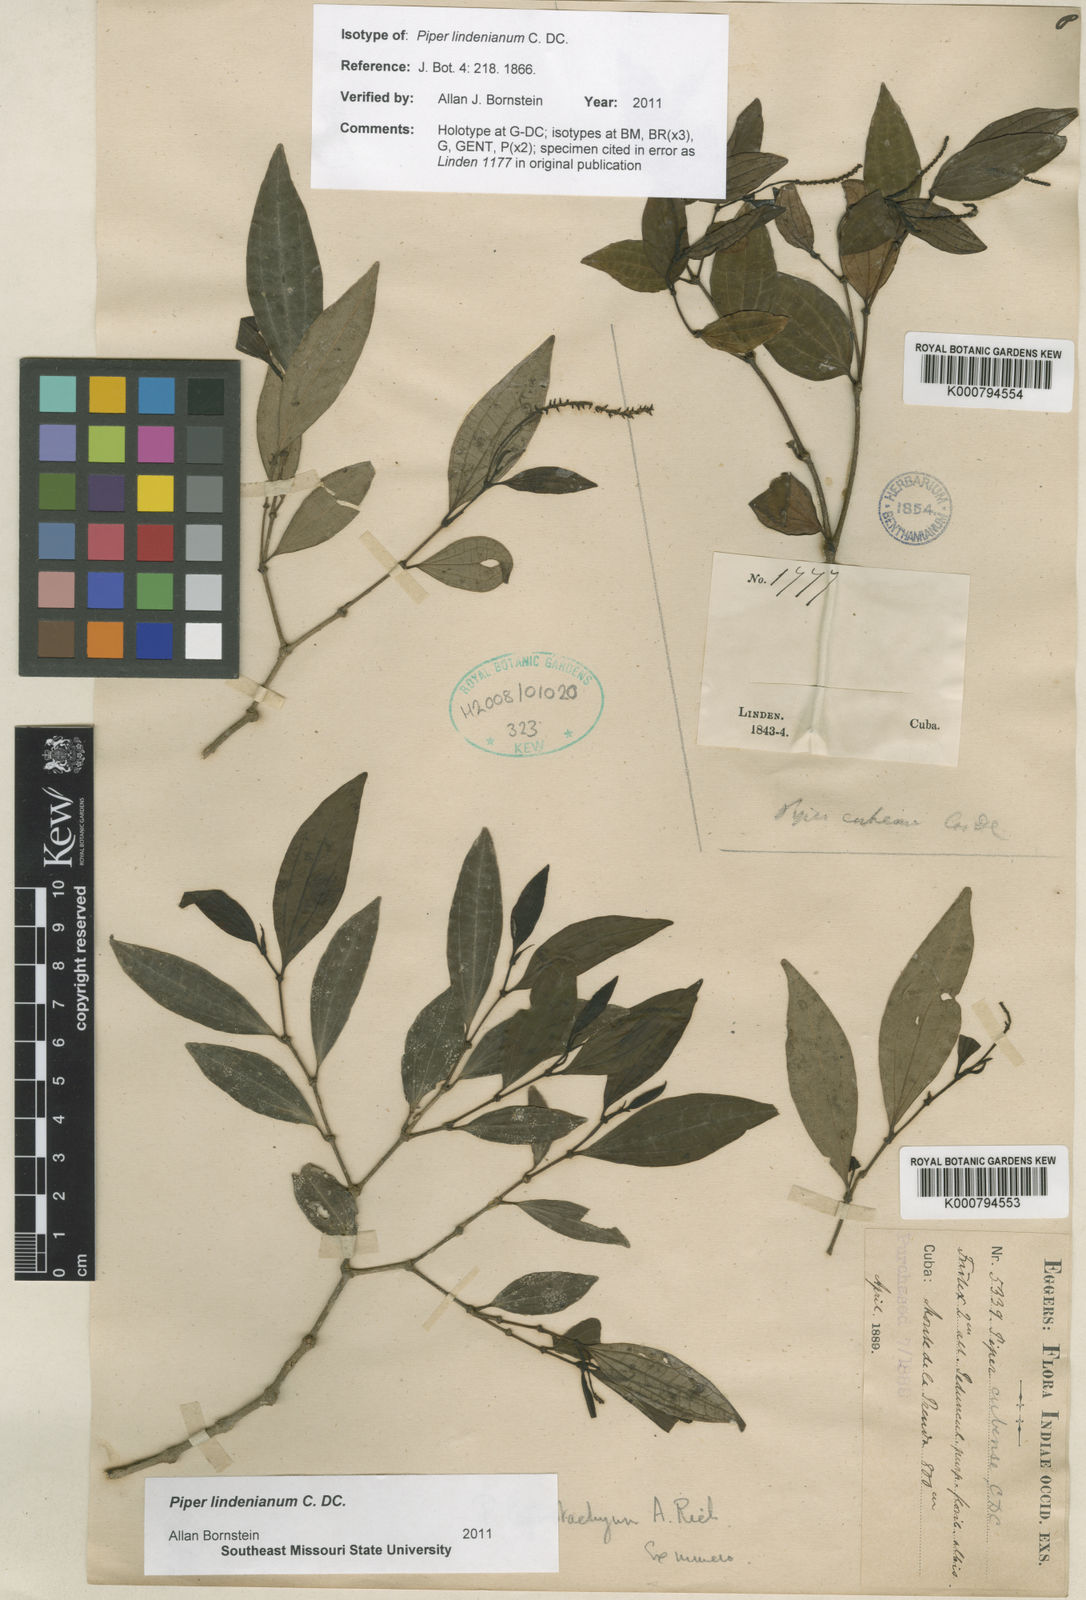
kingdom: Plantae
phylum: Tracheophyta
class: Magnoliopsida
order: Piperales
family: Piperaceae
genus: Piper
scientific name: Piper lindenianum
